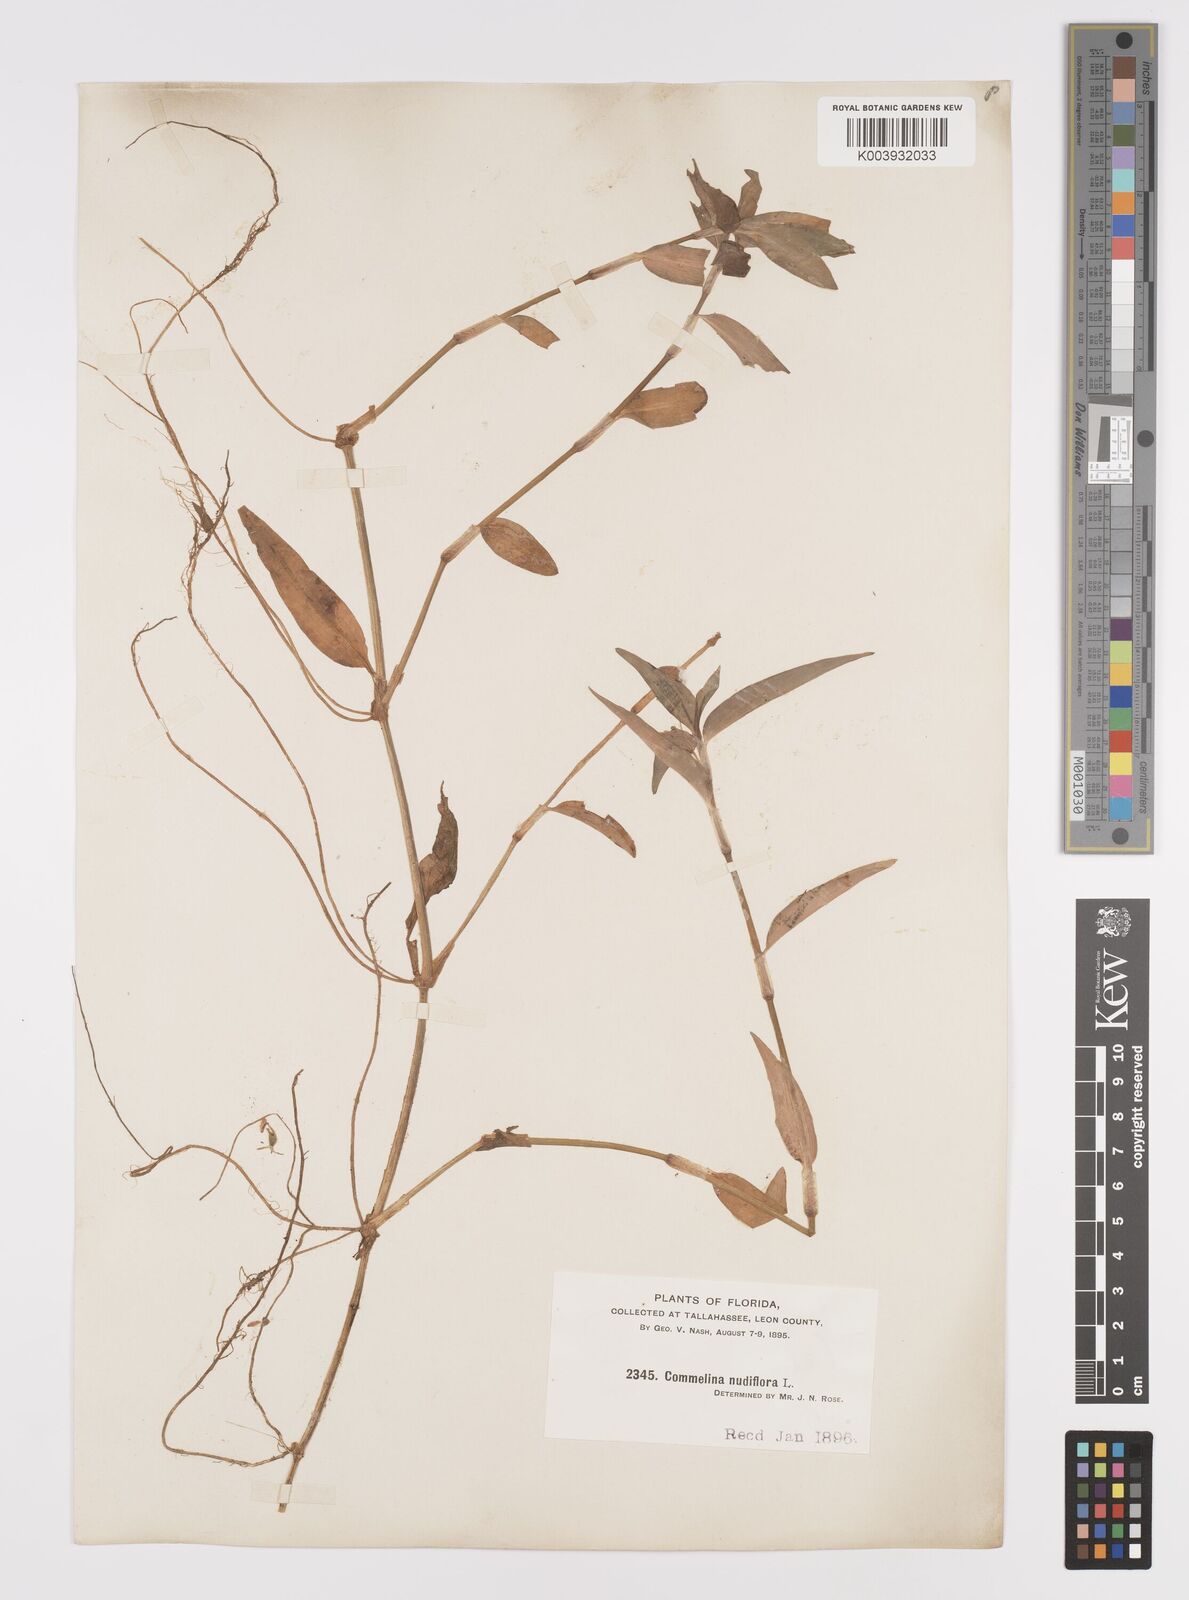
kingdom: Plantae
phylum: Tracheophyta
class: Liliopsida
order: Commelinales
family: Commelinaceae
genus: Murdannia
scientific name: Murdannia nudiflora
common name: Nakedstem dewflower
